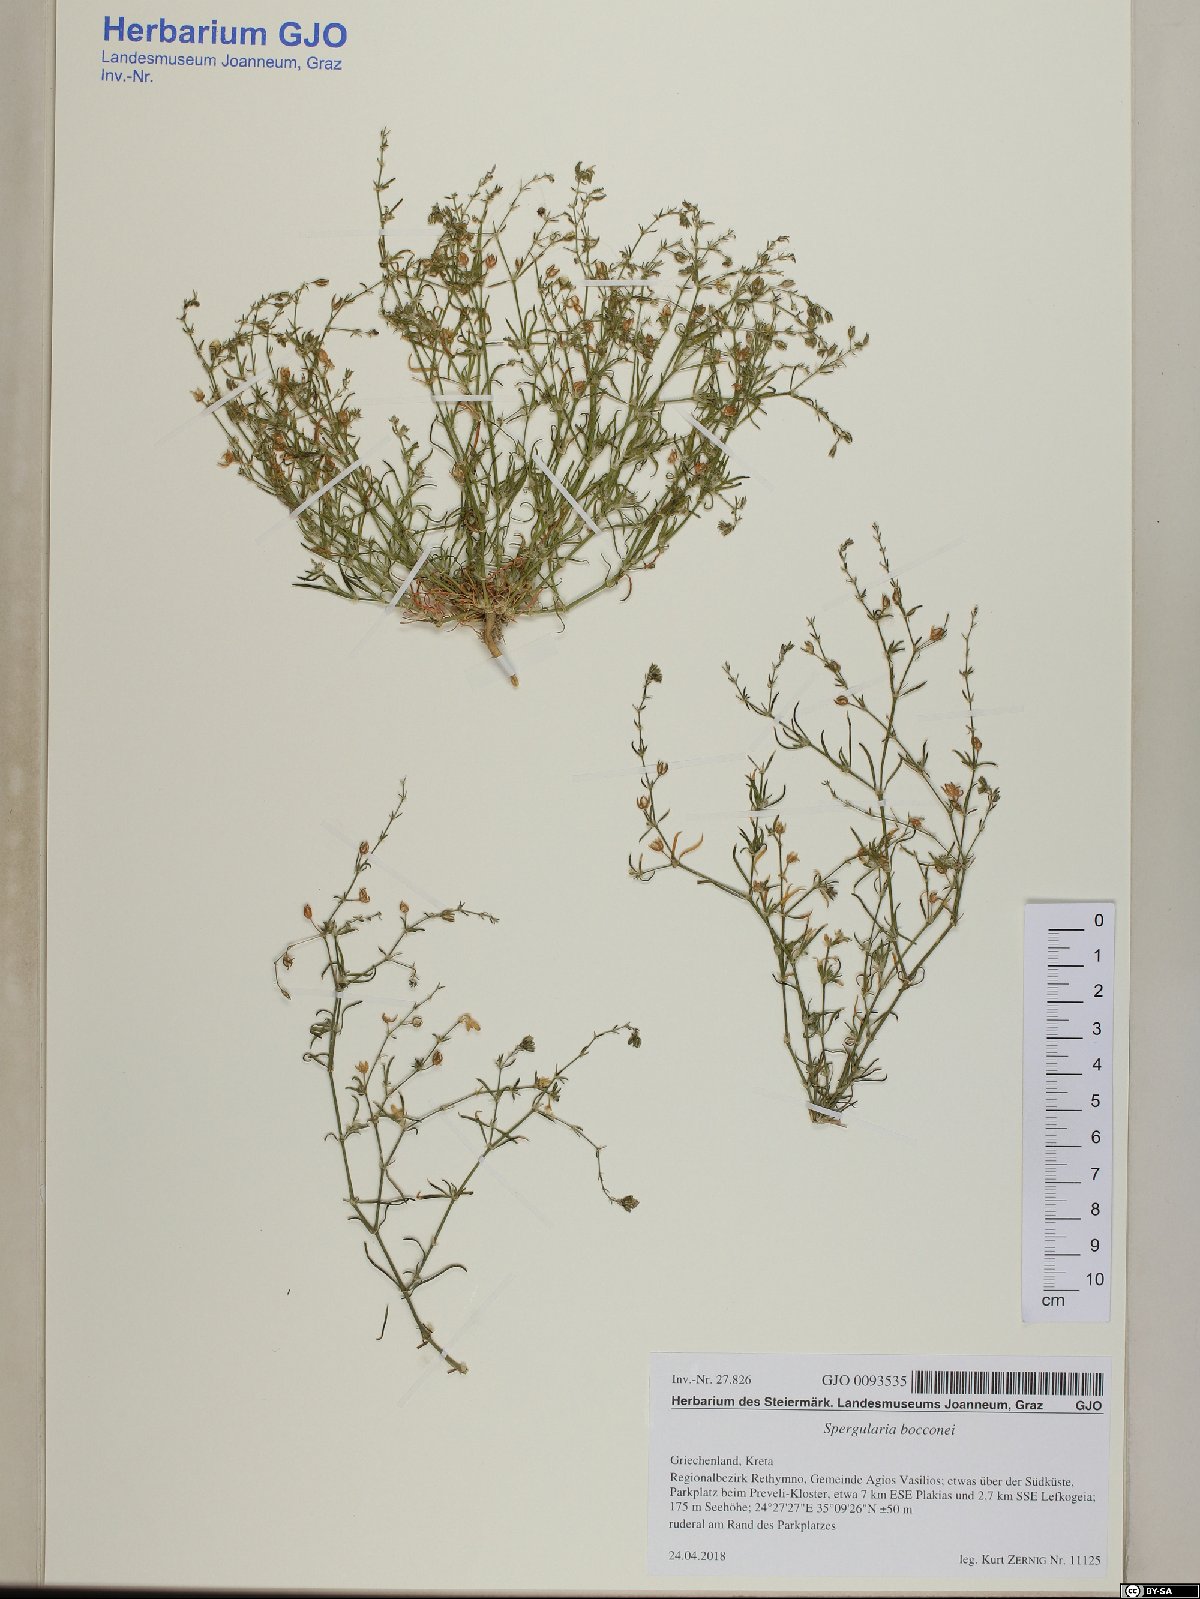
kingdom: Plantae
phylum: Tracheophyta
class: Magnoliopsida
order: Caryophyllales
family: Caryophyllaceae
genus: Spergularia
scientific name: Spergularia bocconei
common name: Greek sea-spurrey
